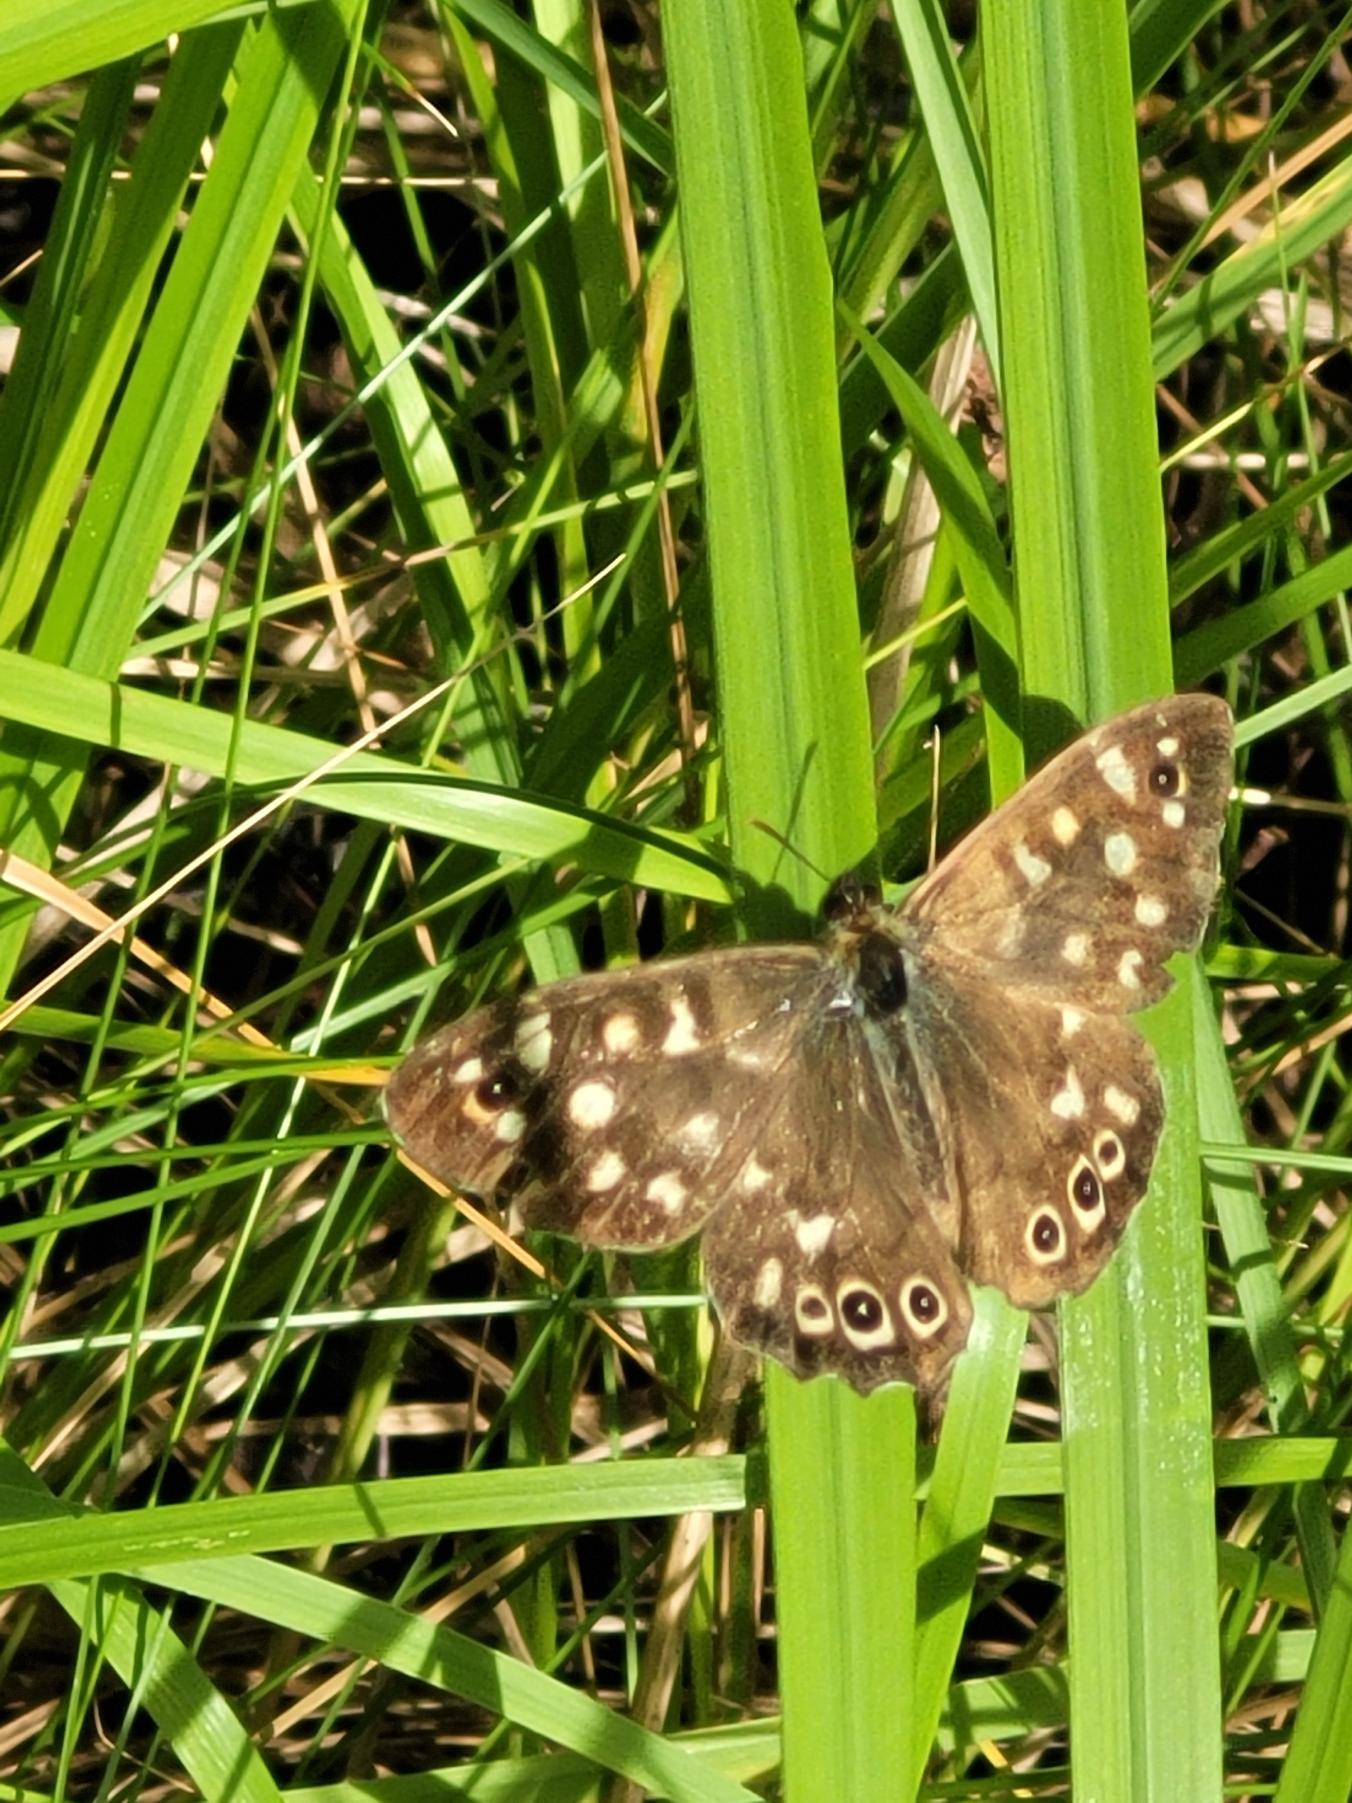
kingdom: Animalia
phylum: Arthropoda
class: Insecta
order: Lepidoptera
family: Nymphalidae
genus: Pararge
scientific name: Pararge aegeria
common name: Skovrandøje
